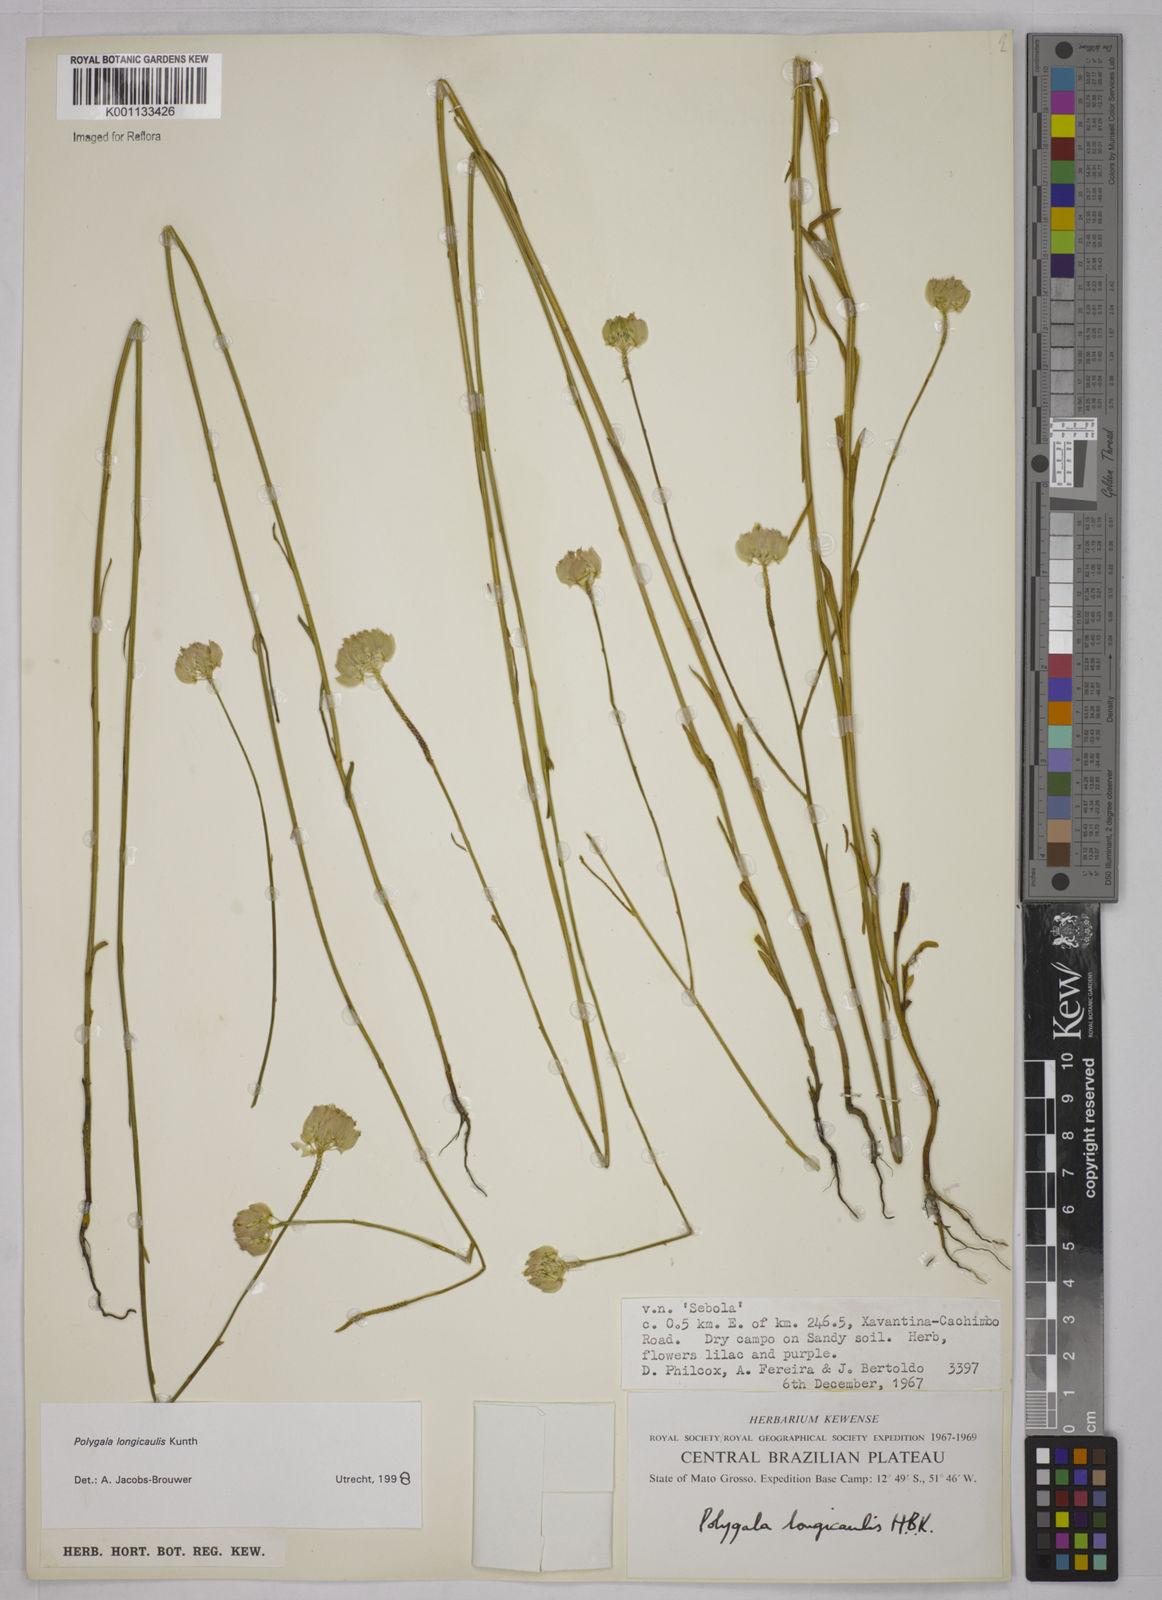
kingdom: Plantae
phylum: Tracheophyta
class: Magnoliopsida
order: Fabales
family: Polygalaceae
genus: Polygala
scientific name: Polygala longicaulis
